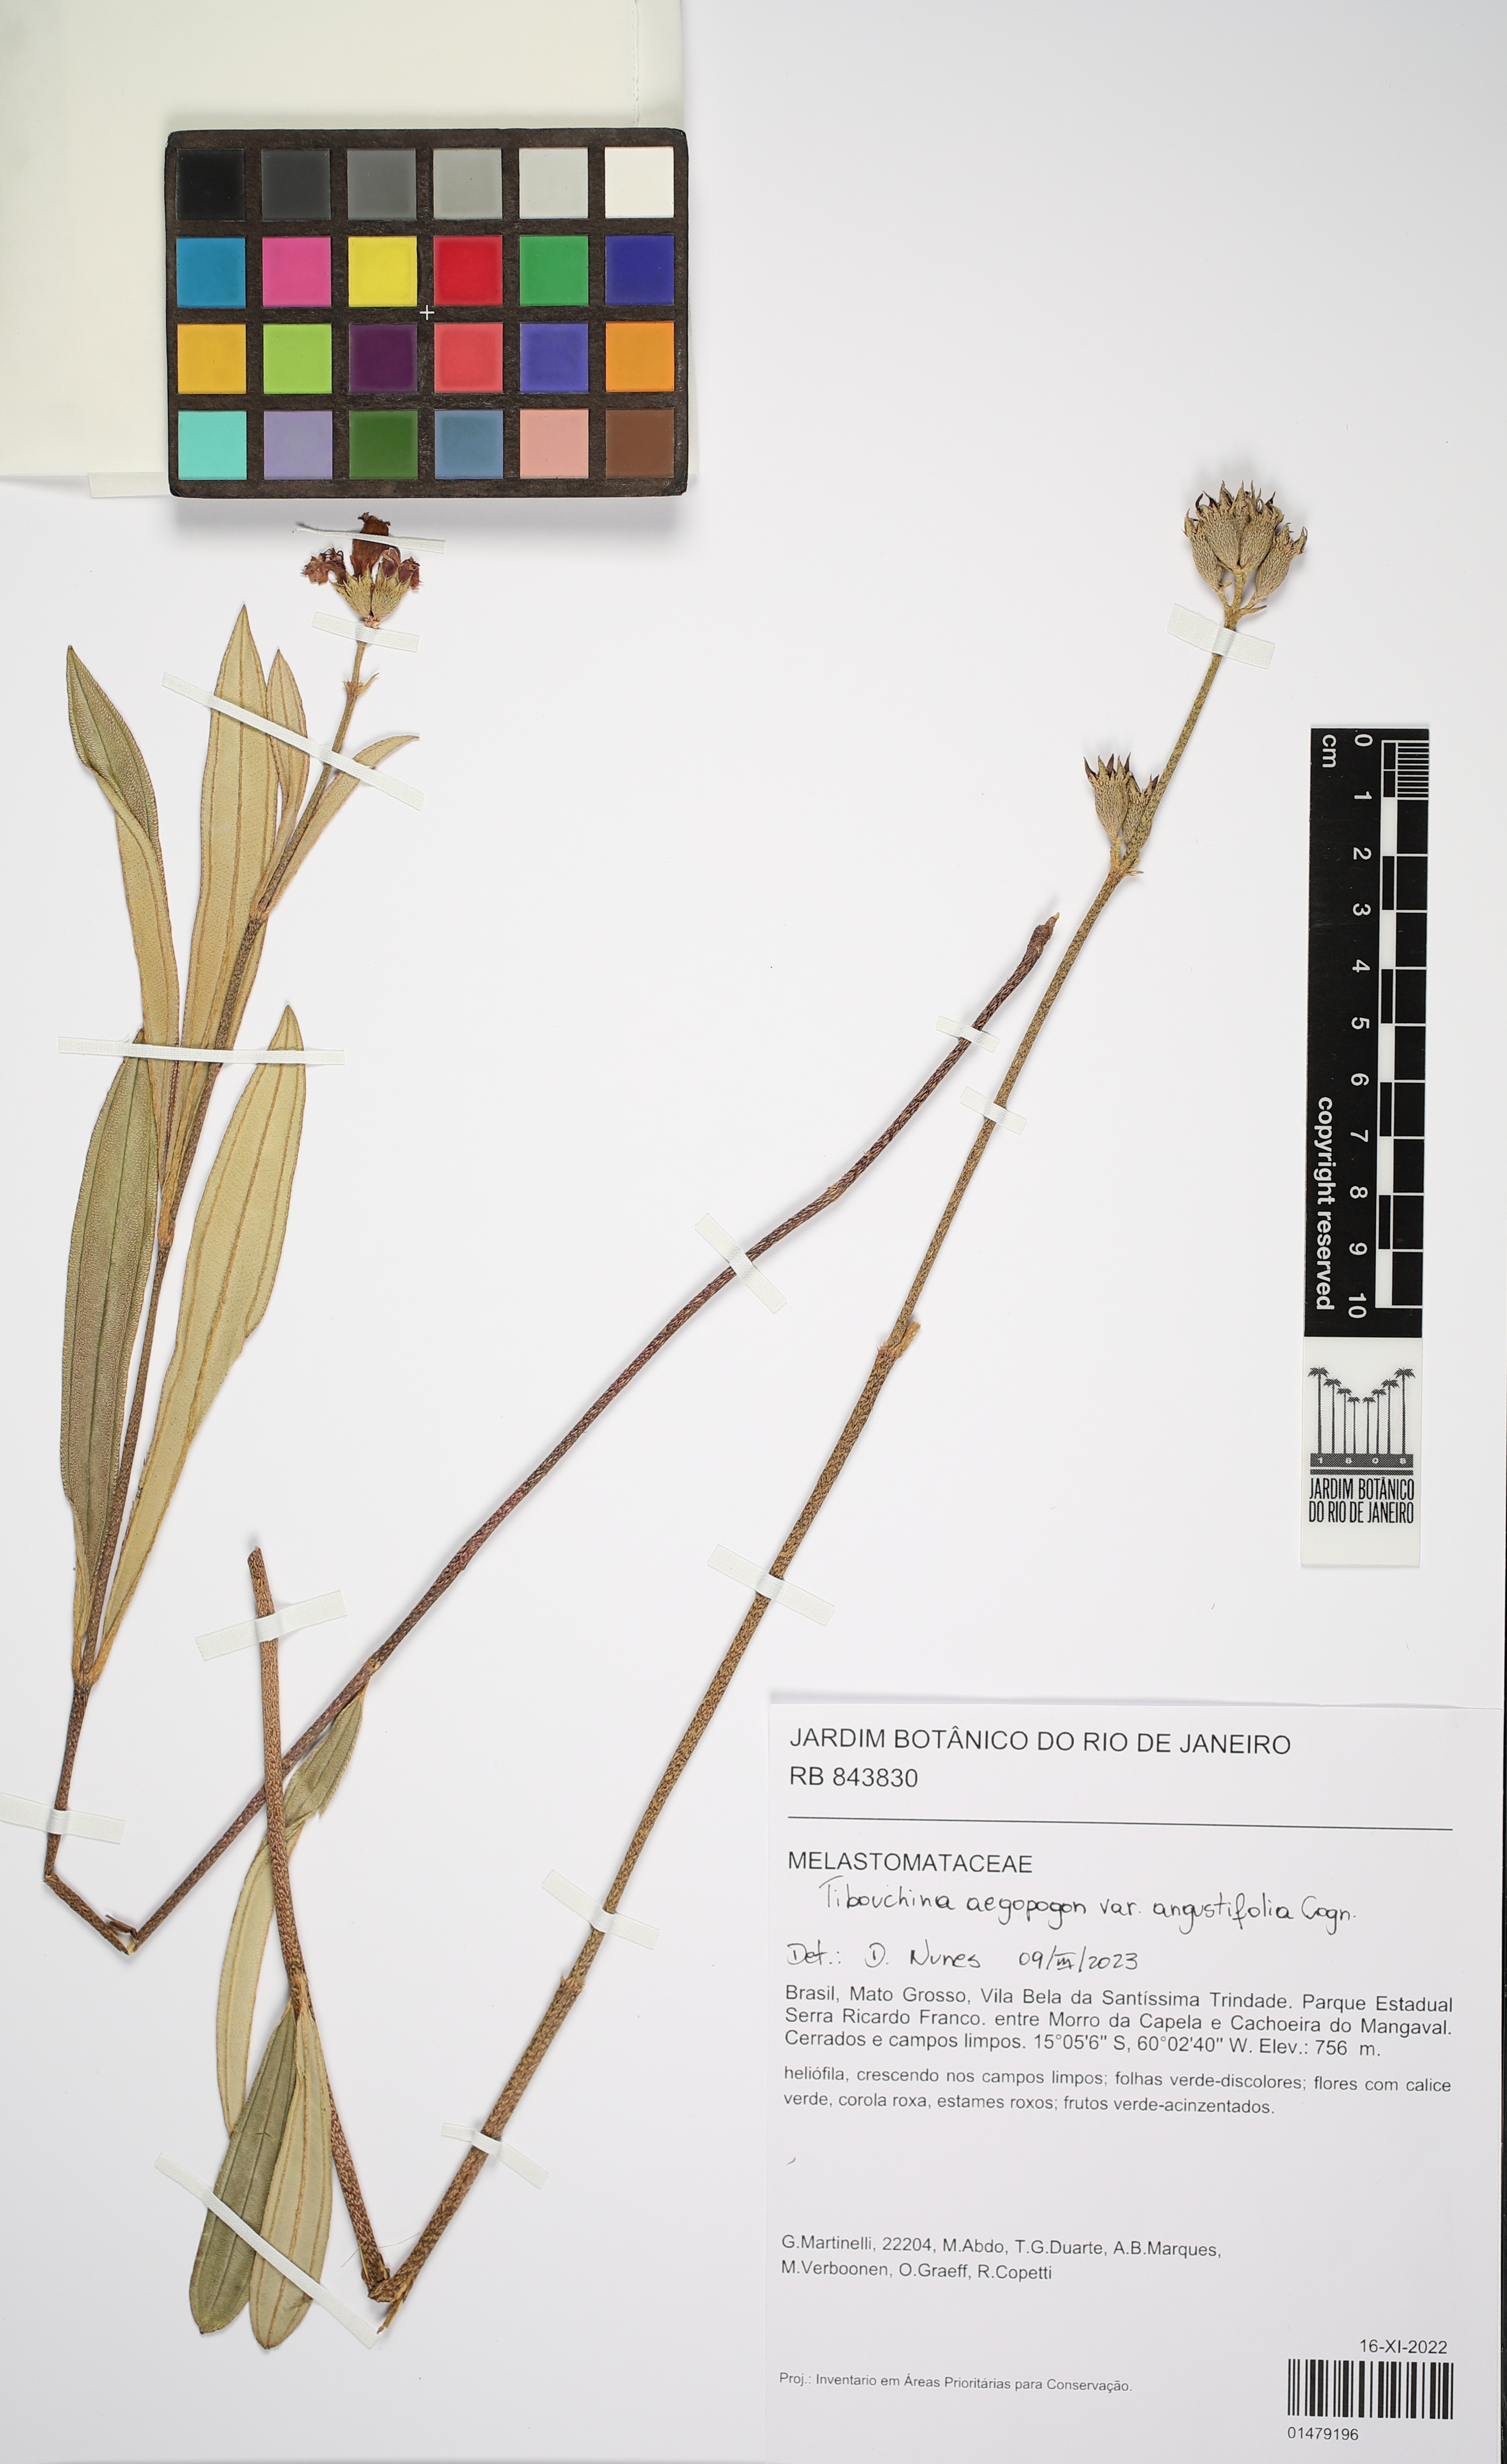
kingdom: Plantae
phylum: Tracheophyta
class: Magnoliopsida
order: Myrtales
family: Melastomataceae
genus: Pleroma
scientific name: Pleroma aegopogon
